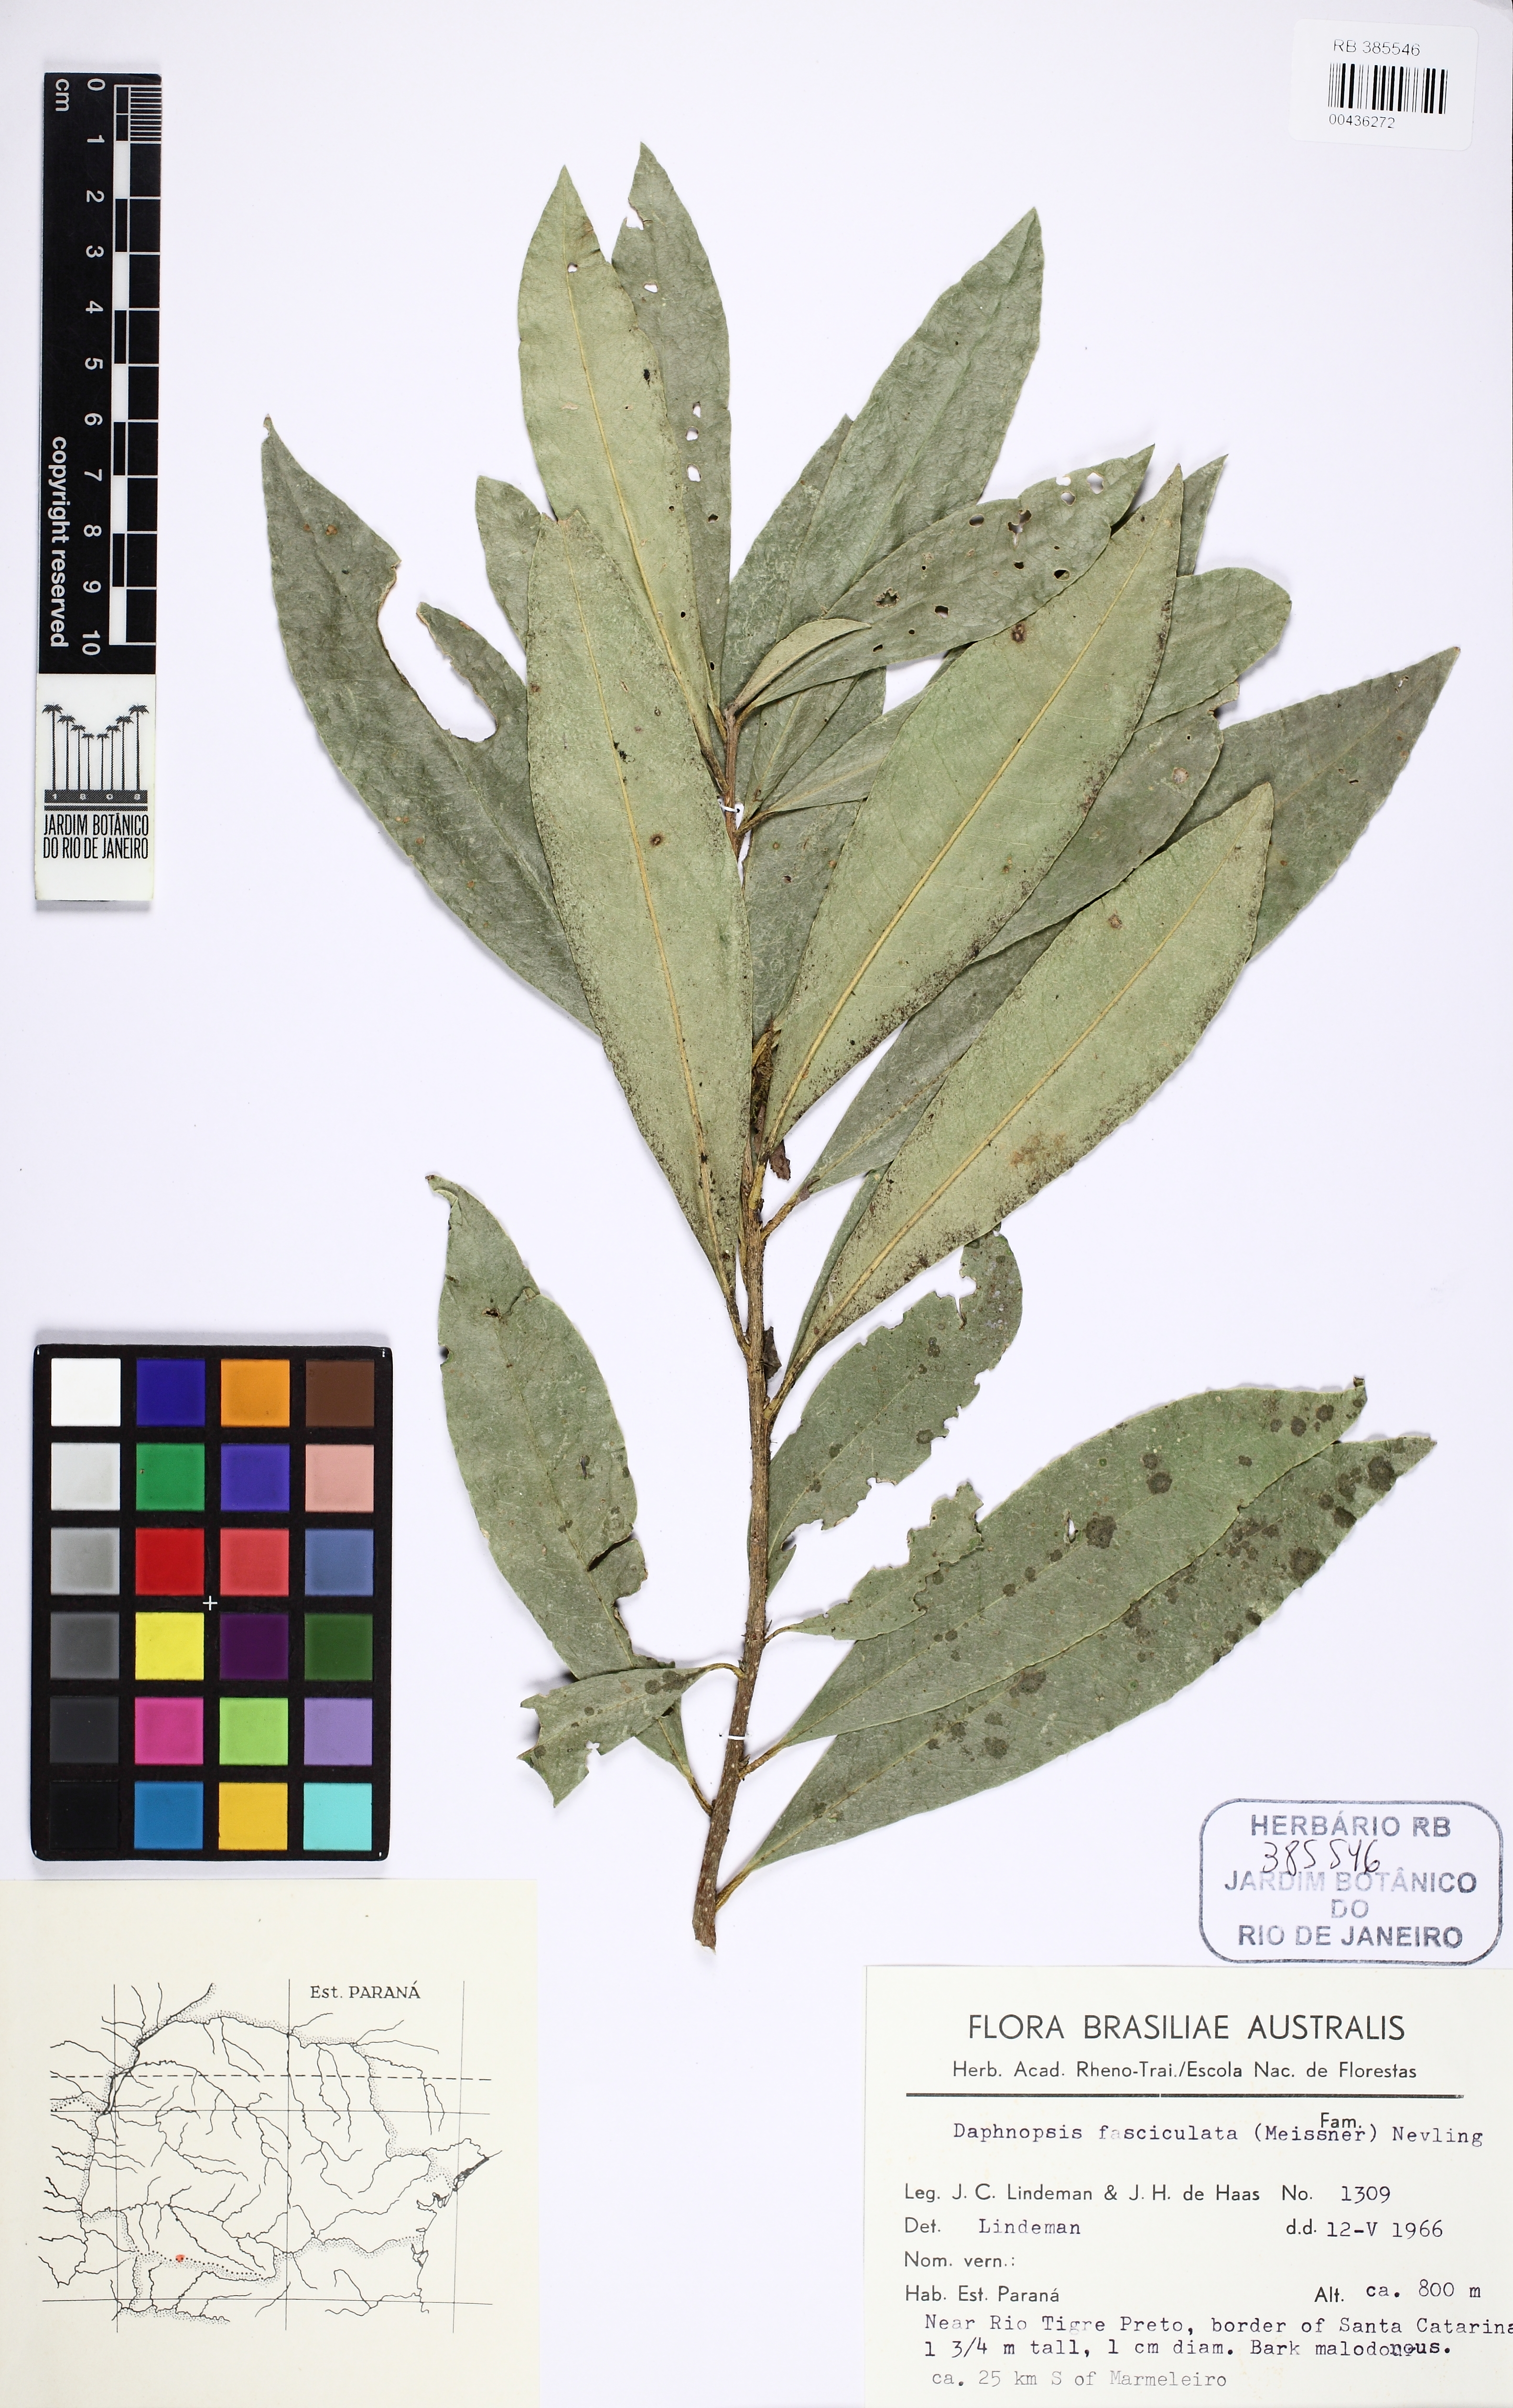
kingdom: Plantae
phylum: Tracheophyta
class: Magnoliopsida
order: Malvales
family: Thymelaeaceae
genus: Daphnopsis
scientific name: Daphnopsis fasciculata
